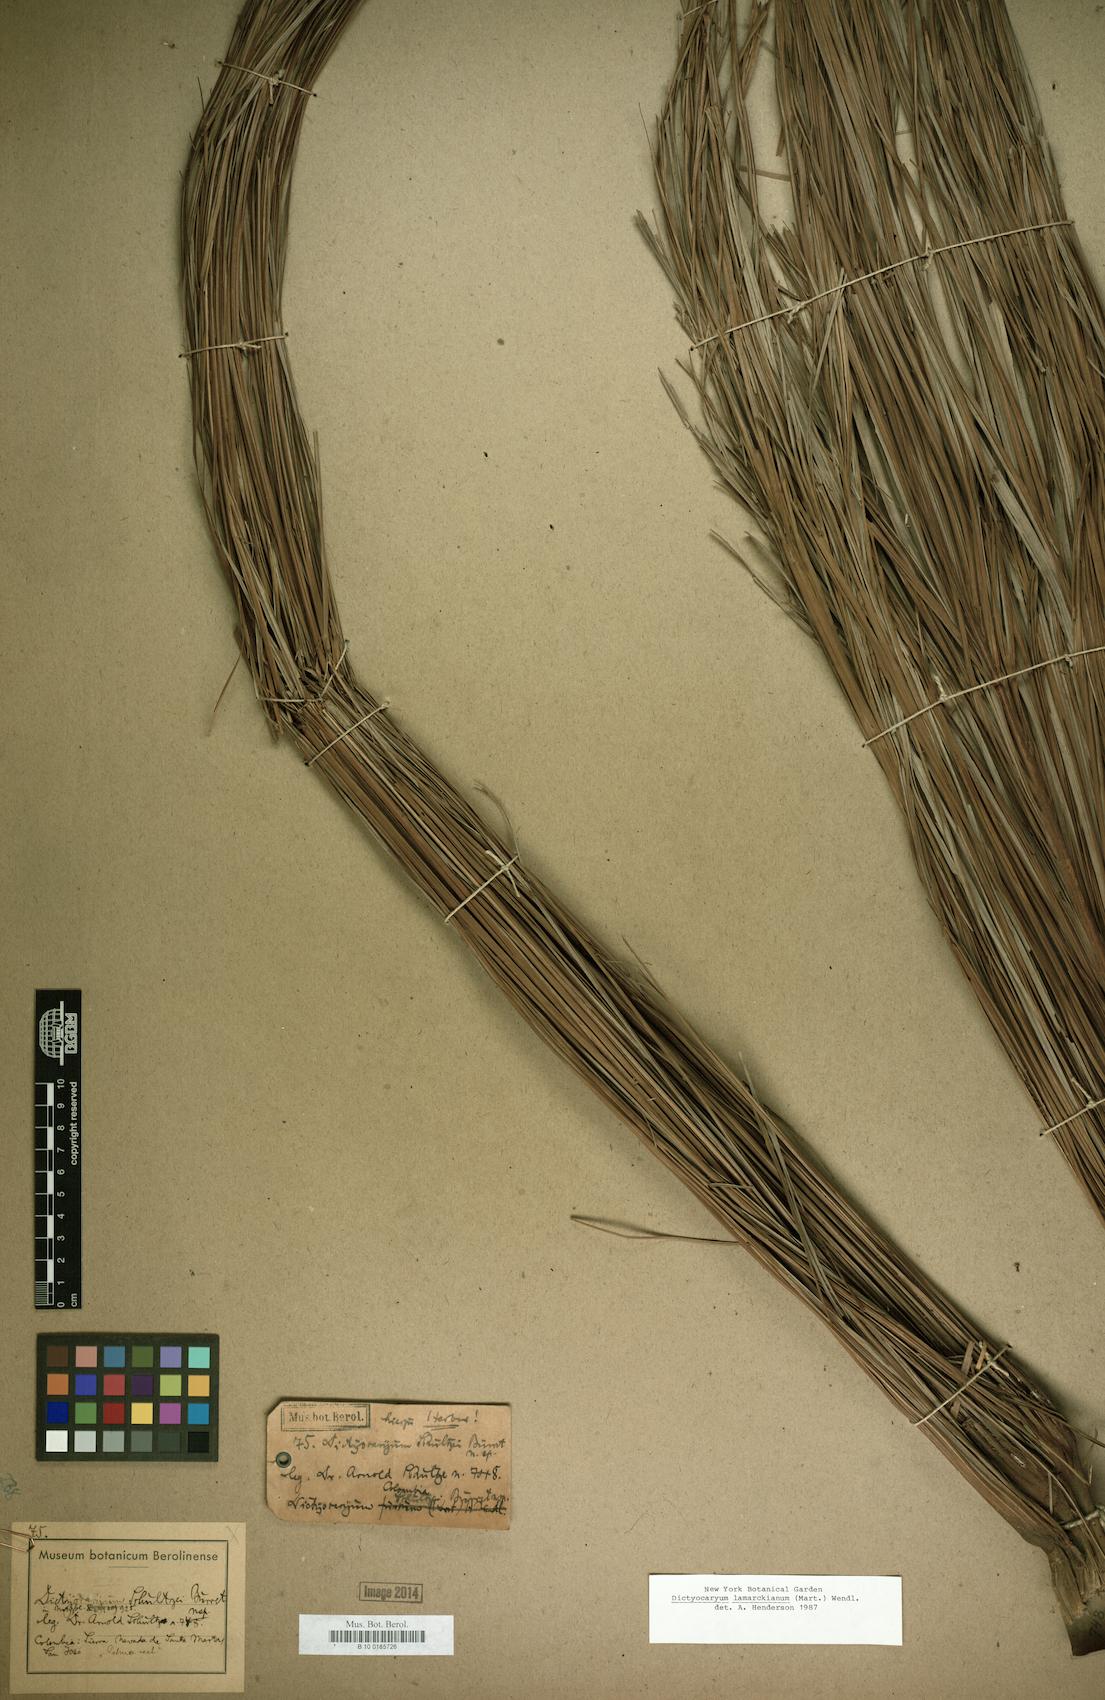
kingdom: Plantae
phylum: Tracheophyta
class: Liliopsida
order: Arecales
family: Arecaceae
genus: Dictyocaryum
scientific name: Dictyocaryum lamarckianum
